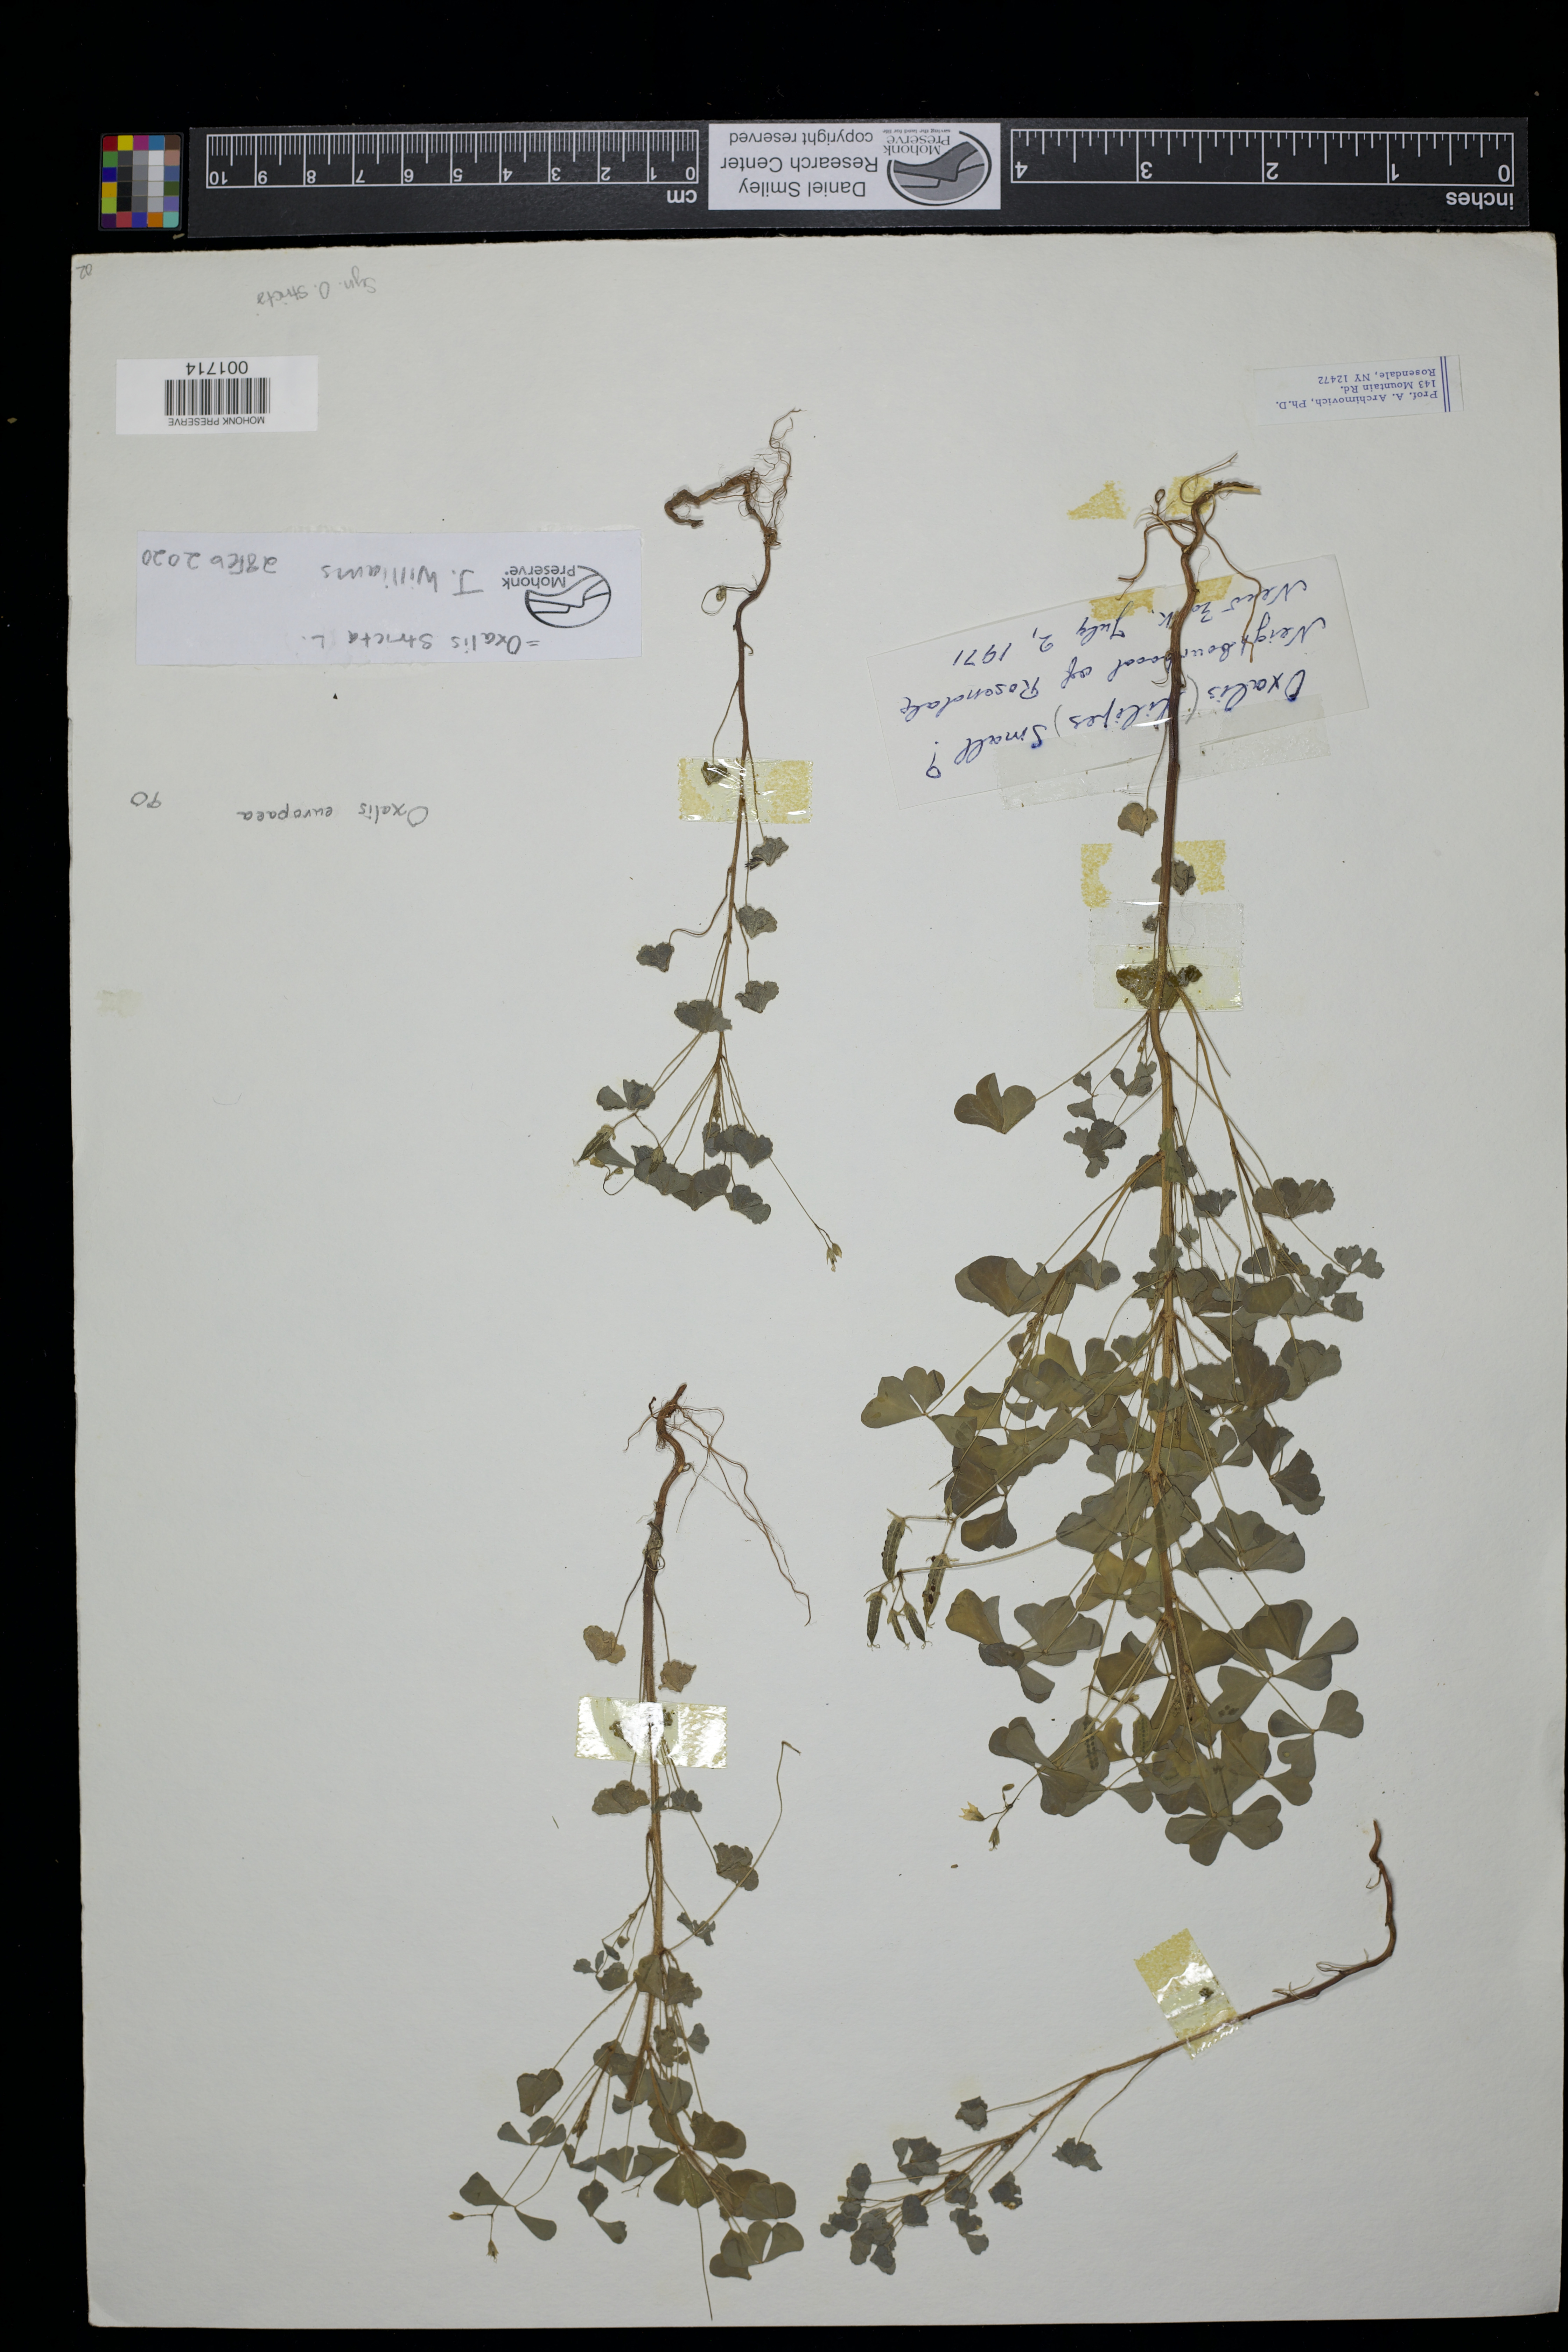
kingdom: Plantae
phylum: Tracheophyta
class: Magnoliopsida
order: Oxalidales
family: Oxalidaceae
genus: Oxalis
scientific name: Oxalis stricta
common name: Upright yellow-sorrel
